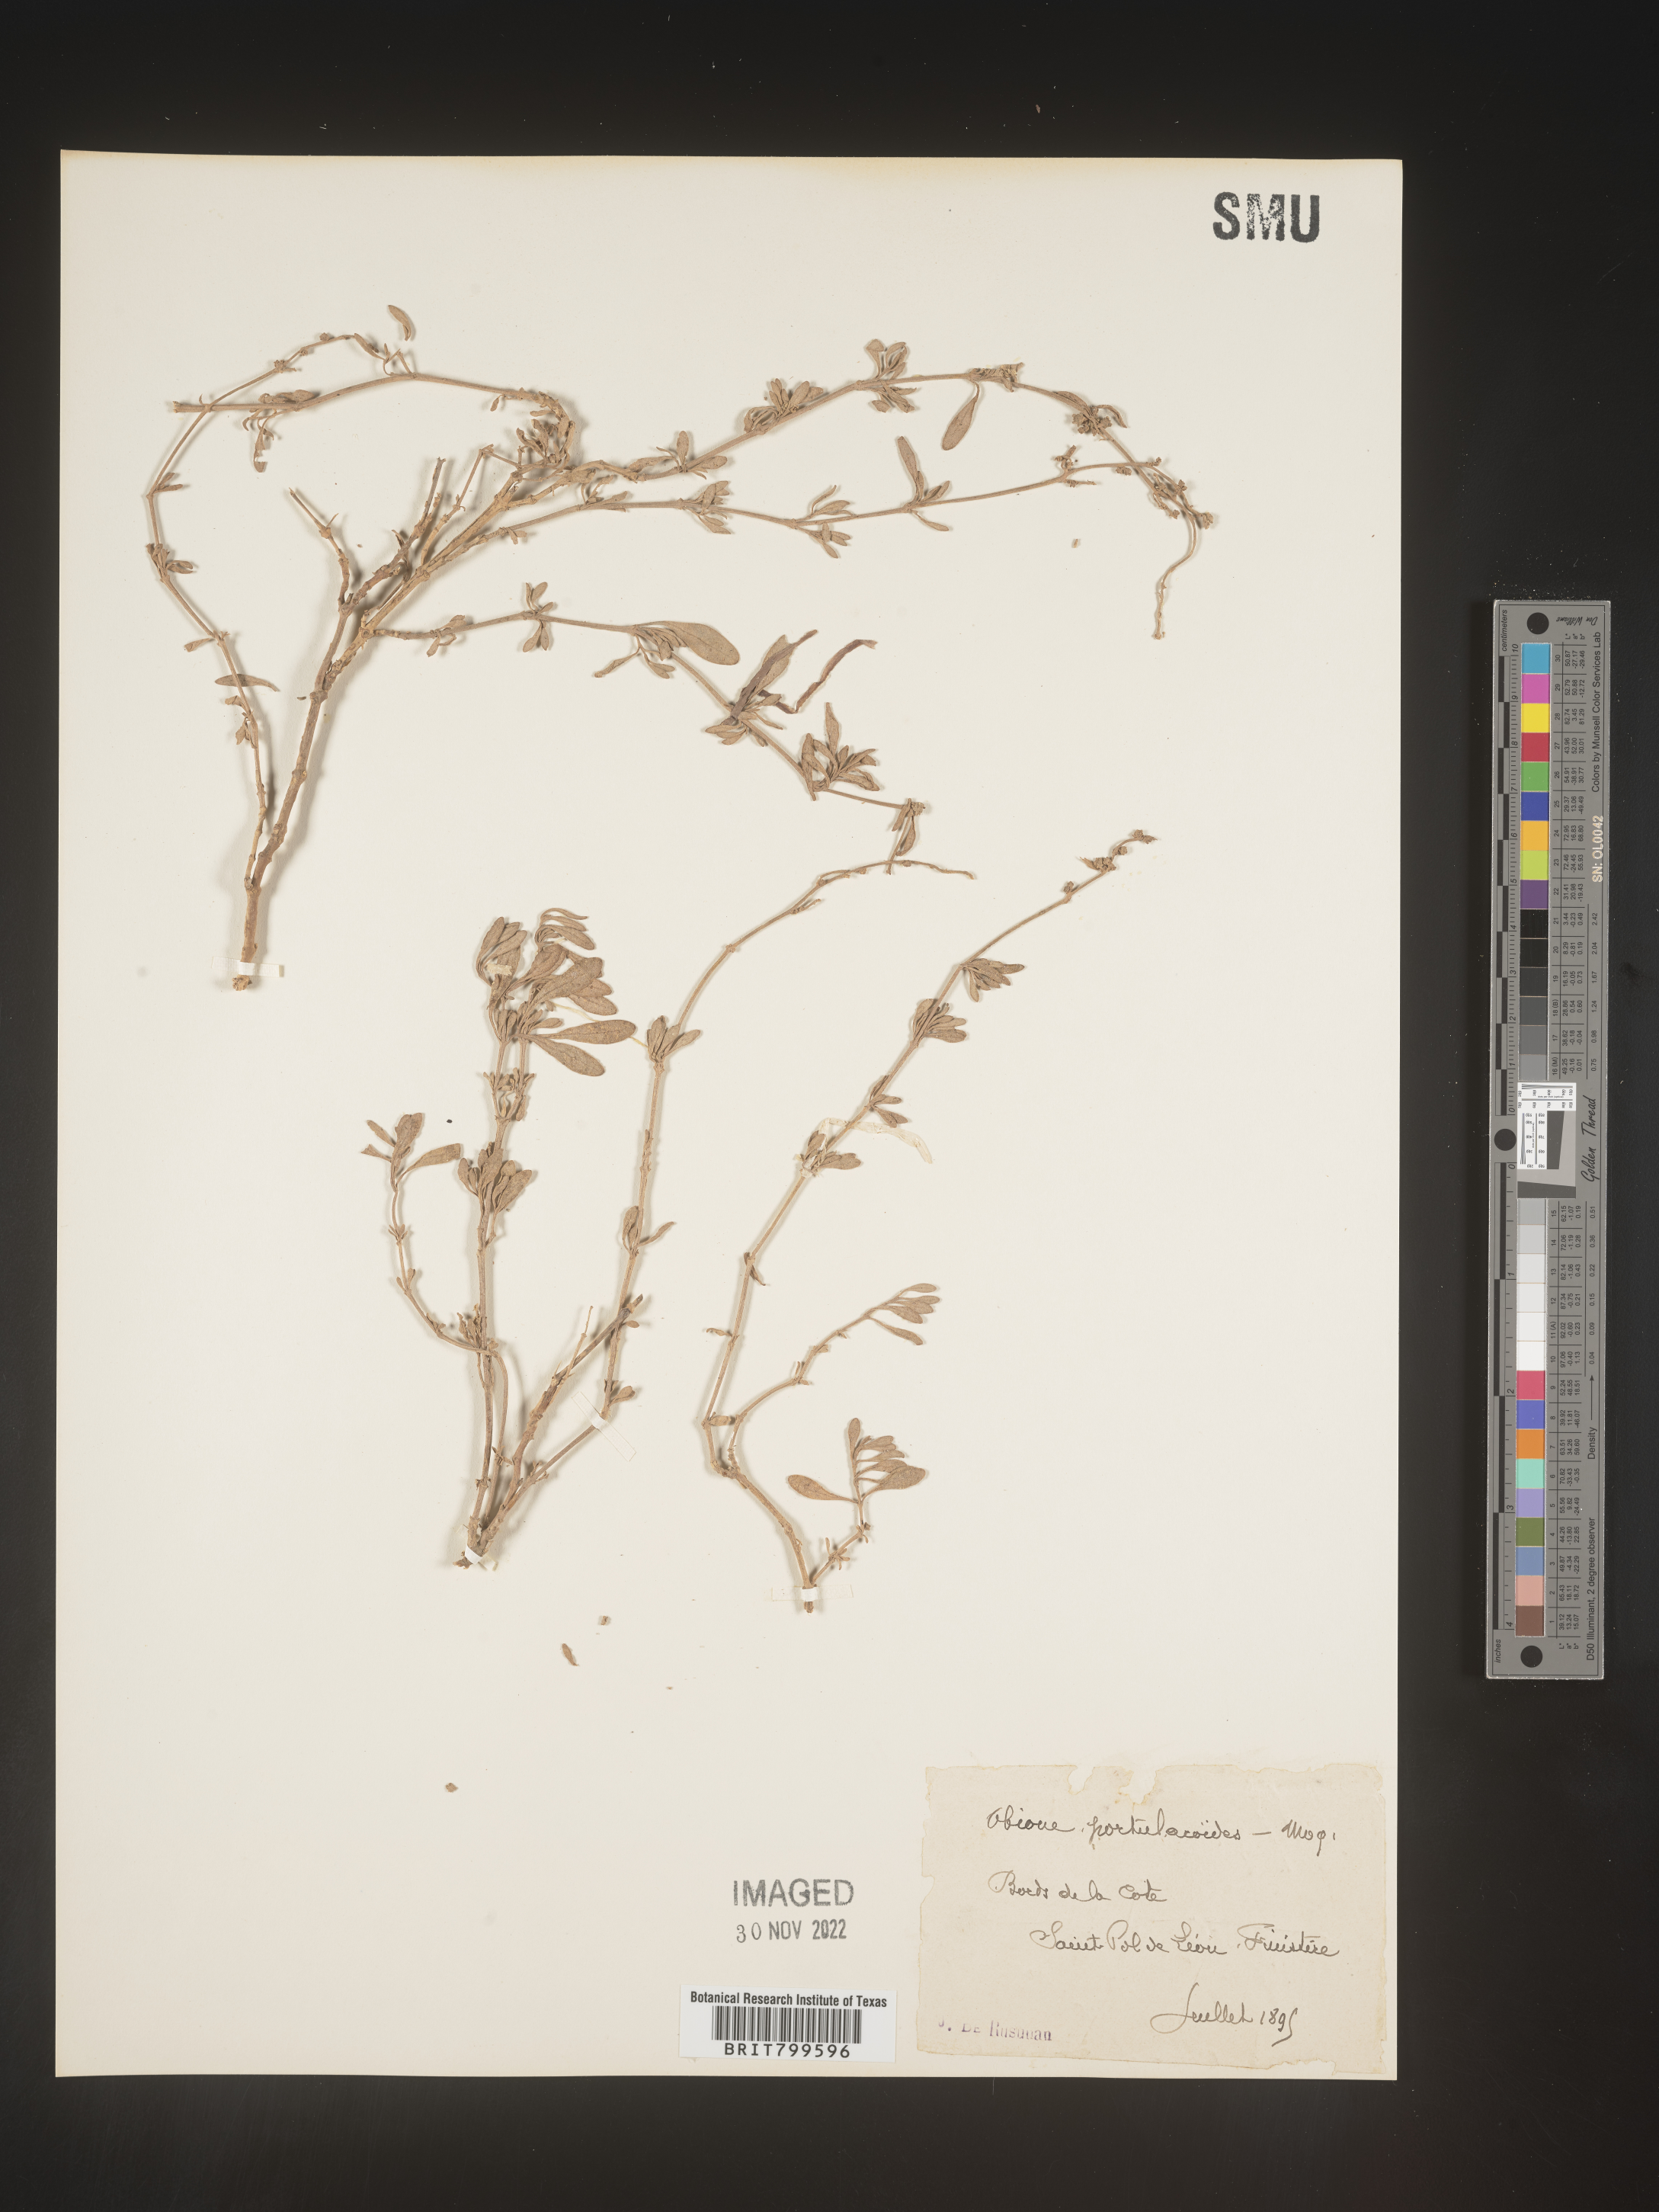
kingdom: Plantae
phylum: Tracheophyta
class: Magnoliopsida
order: Caryophyllales
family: Amaranthaceae
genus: Atriplex
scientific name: Atriplex Obione parvifolia
